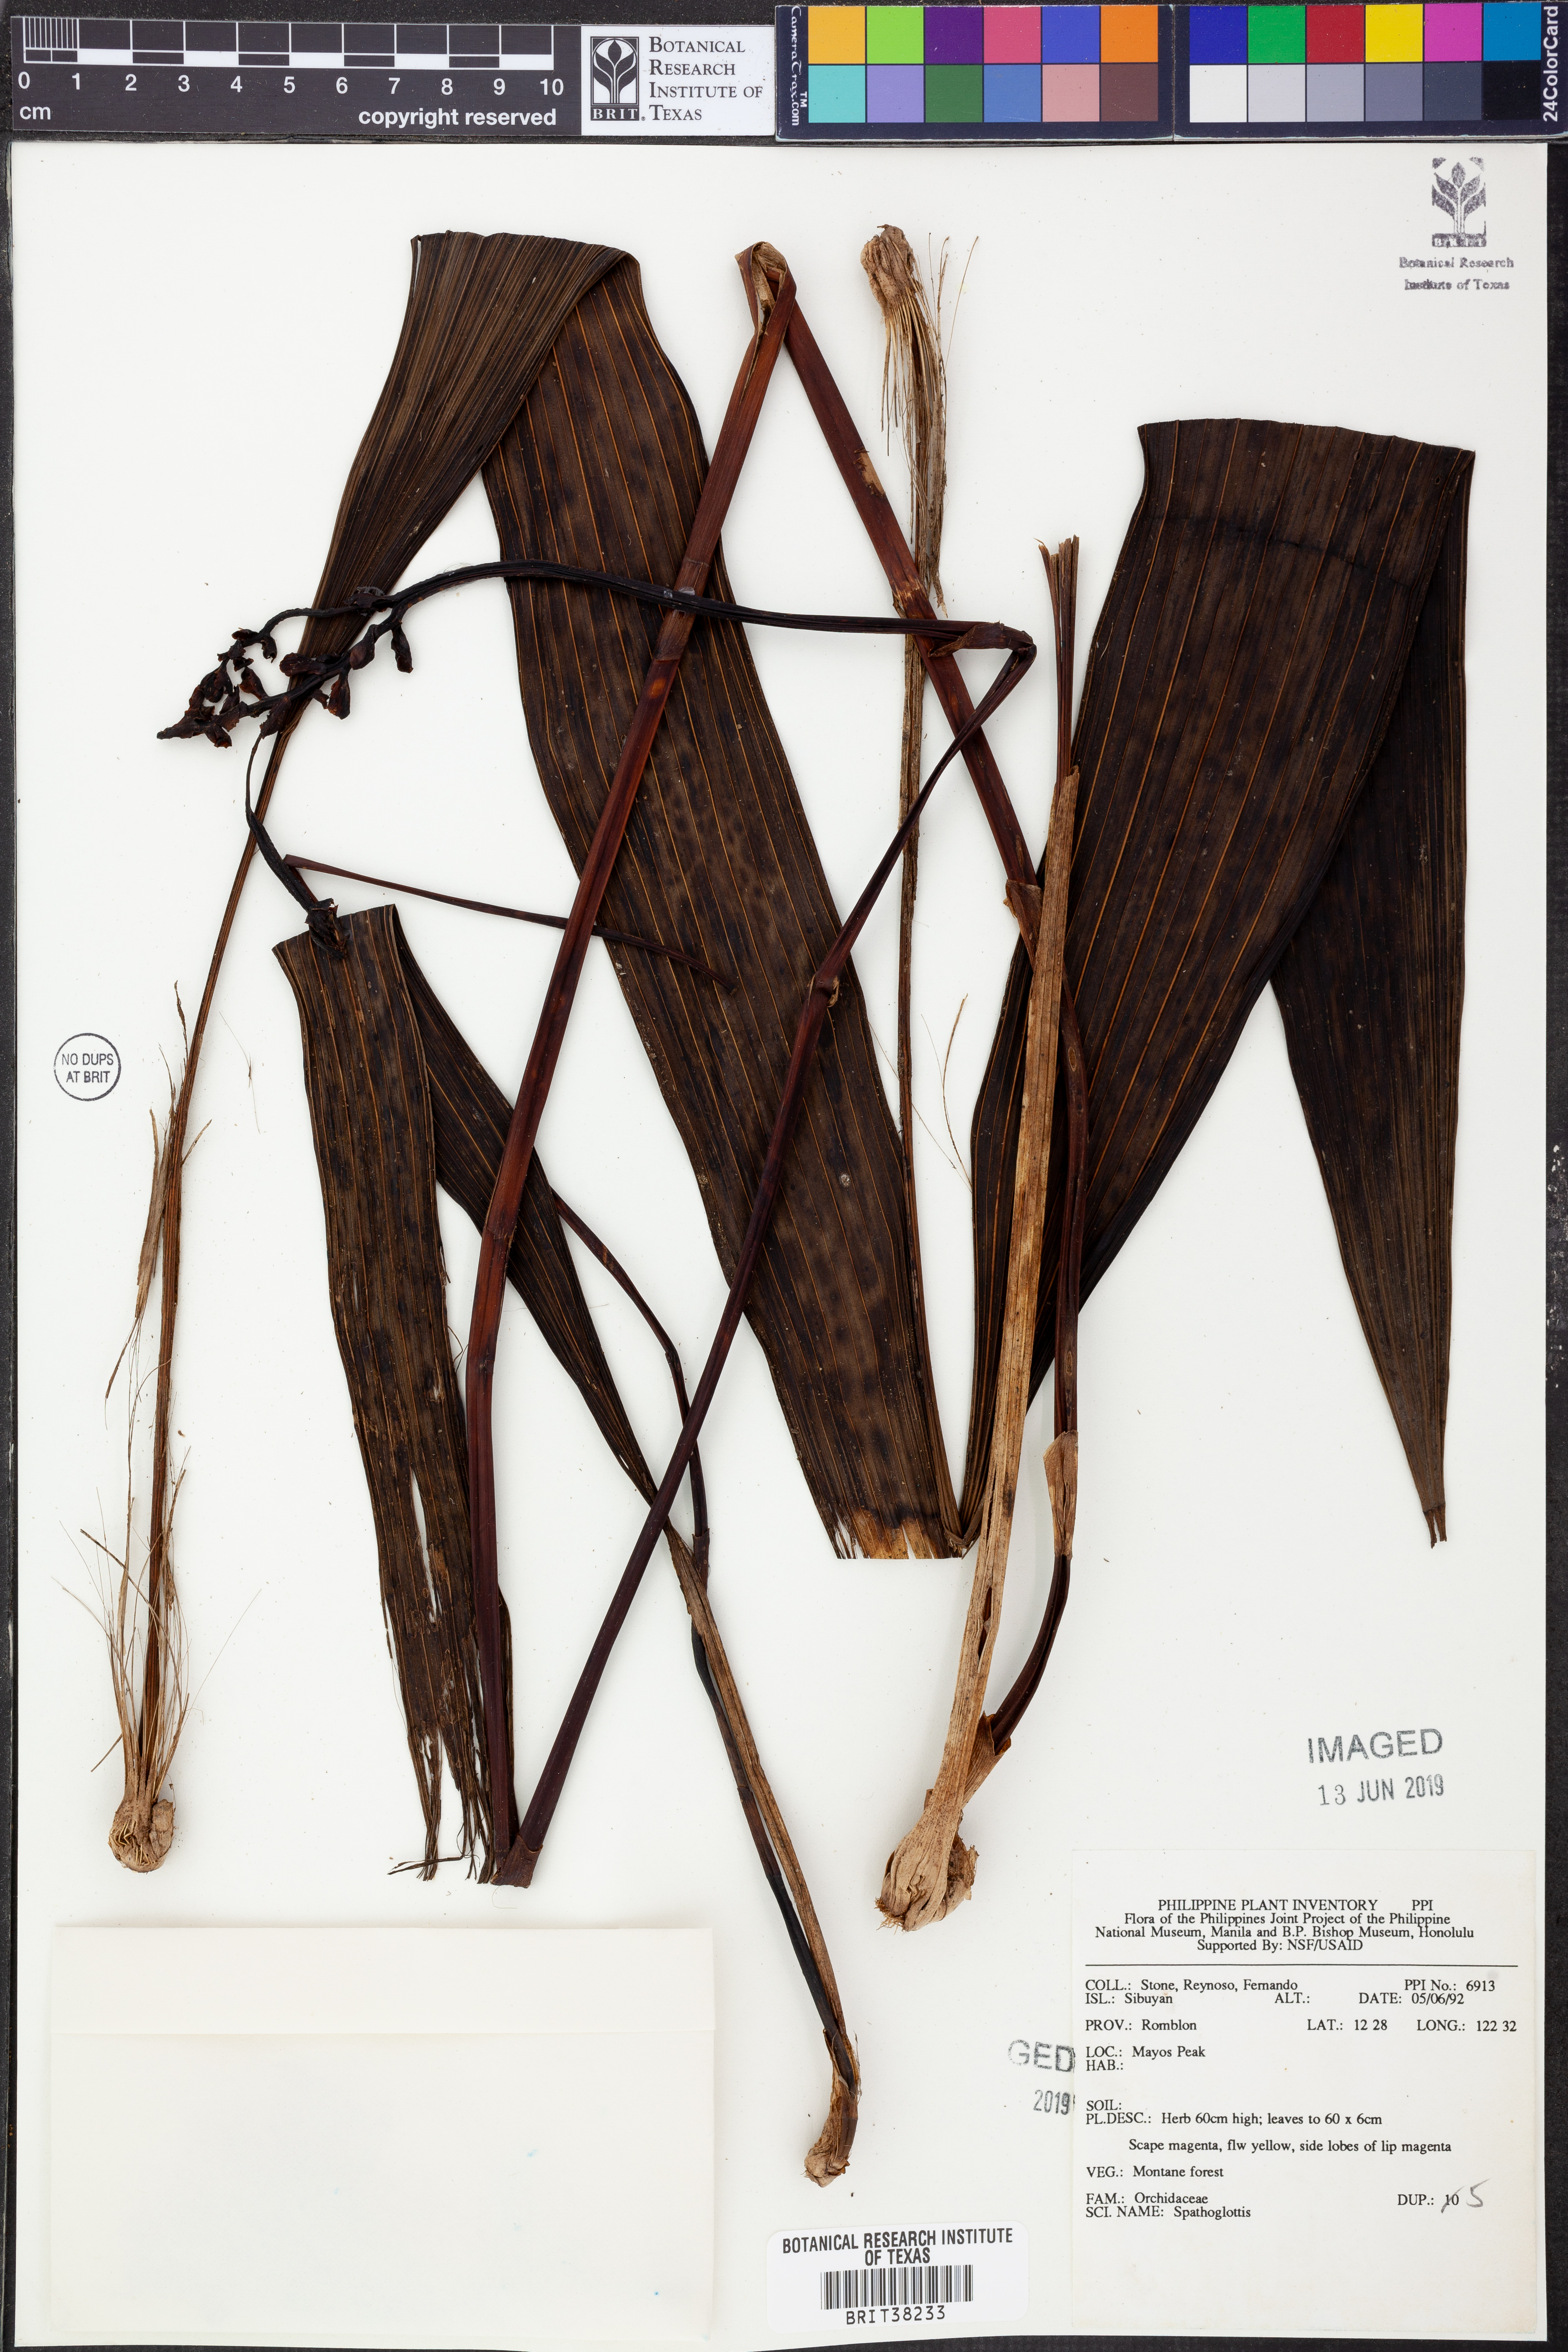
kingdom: Plantae
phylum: Tracheophyta
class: Liliopsida
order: Asparagales
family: Orchidaceae
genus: Spathoglottis
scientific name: Spathoglottis
